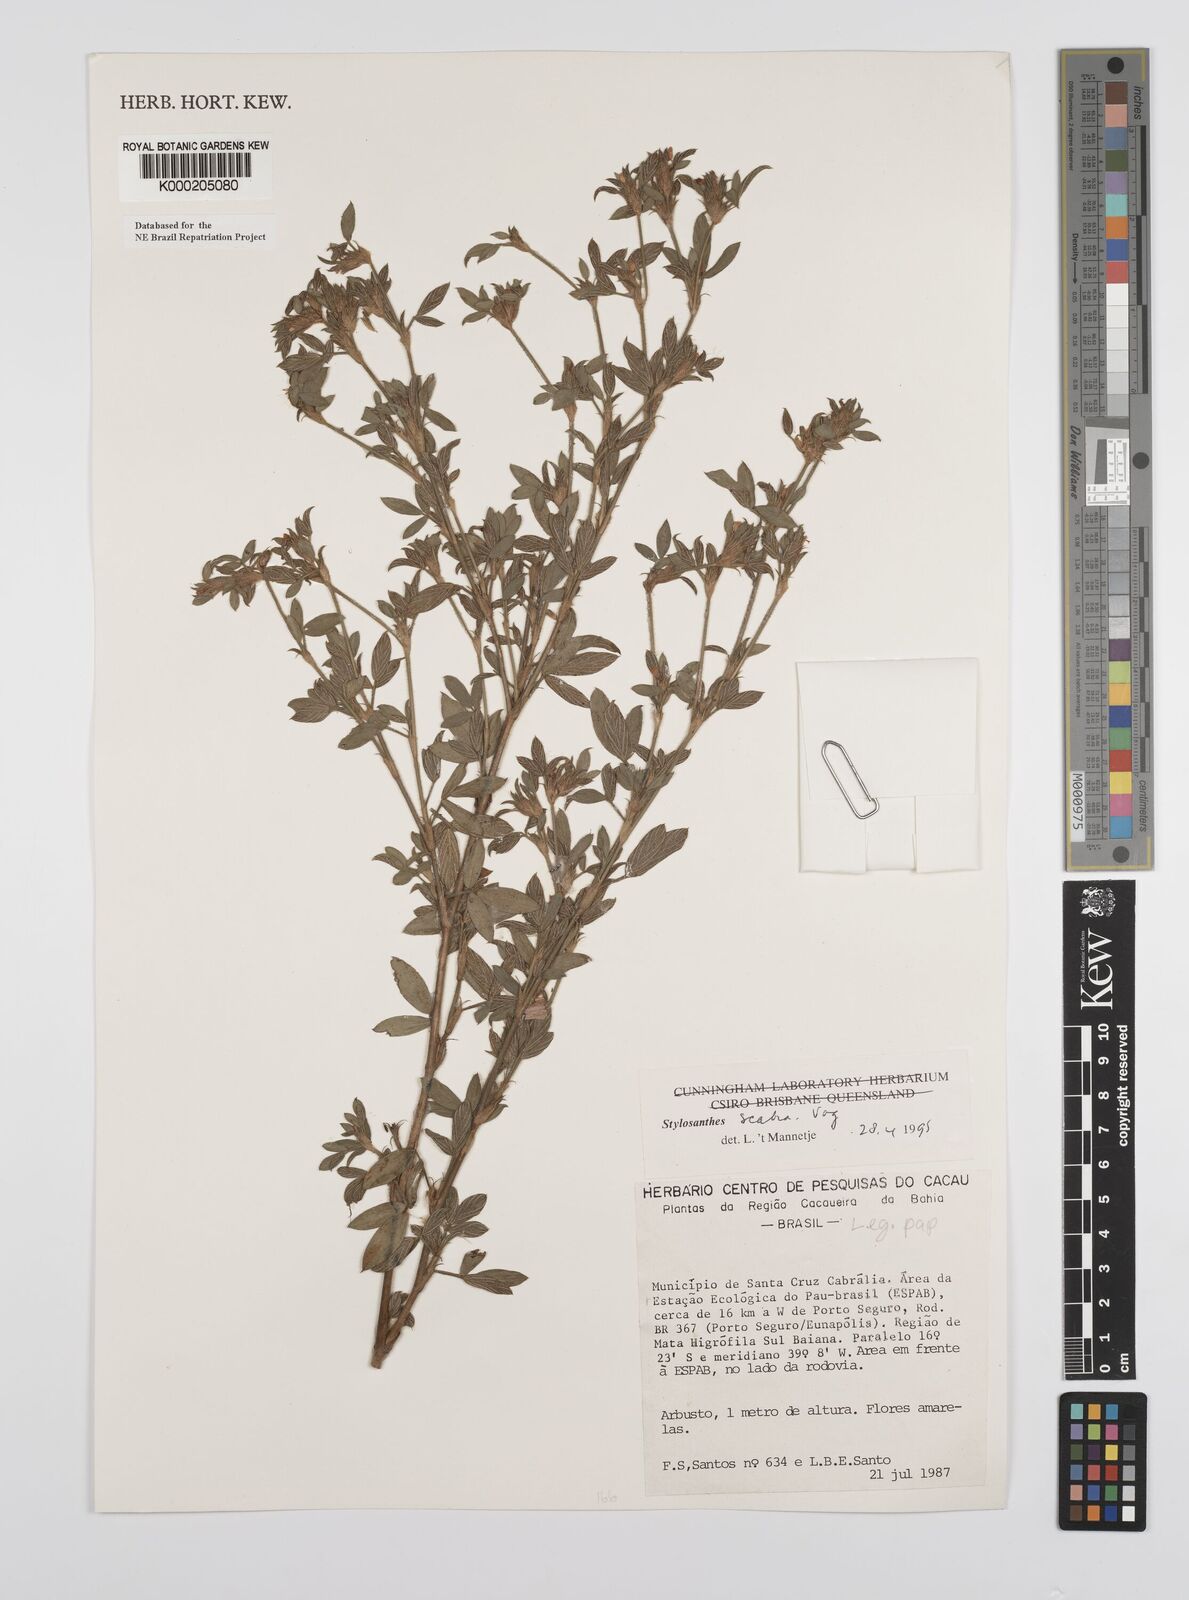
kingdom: Plantae
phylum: Tracheophyta
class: Magnoliopsida
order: Fabales
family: Fabaceae
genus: Stylosanthes
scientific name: Stylosanthes scabra
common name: Pencilflower
